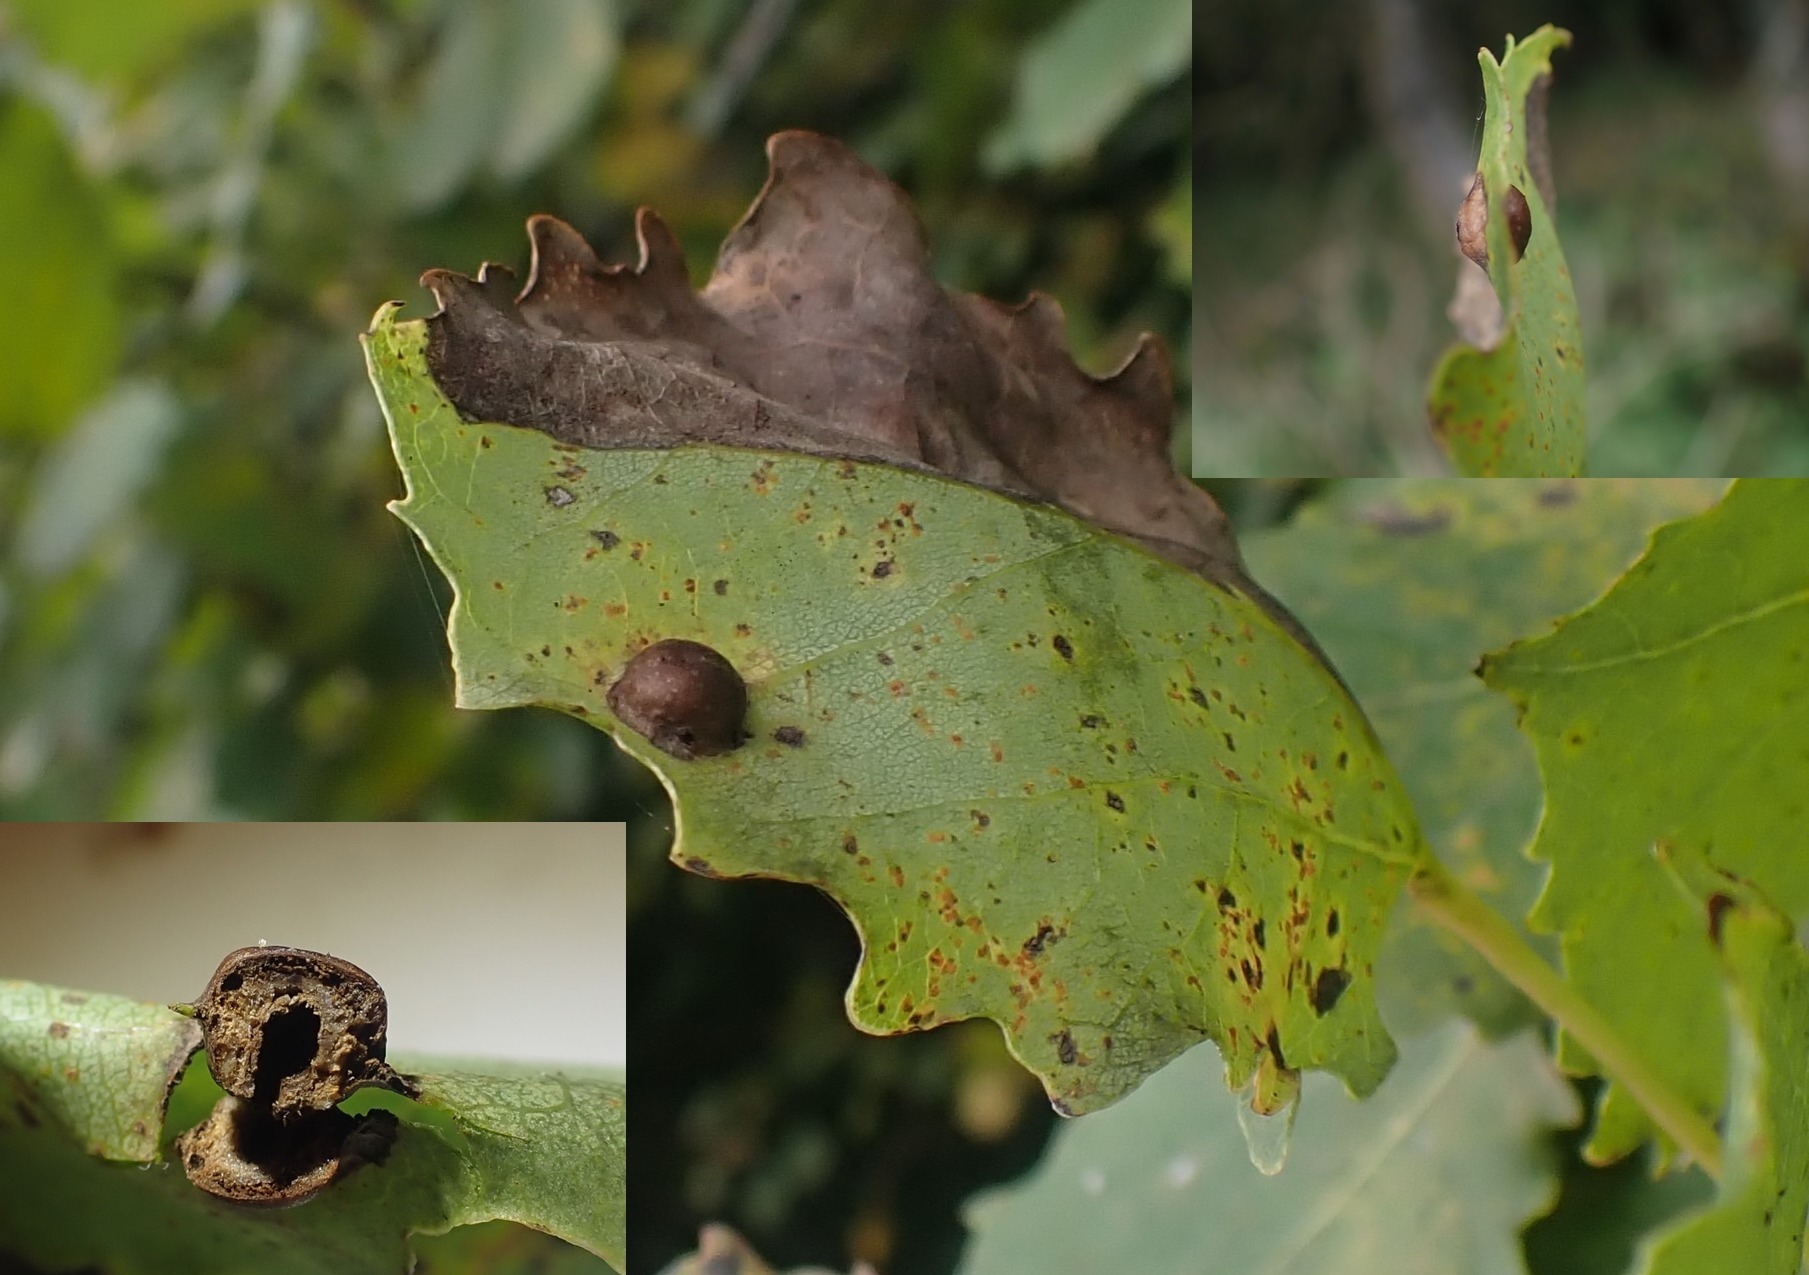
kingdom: Animalia
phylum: Arthropoda
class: Insecta
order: Diptera
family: Cecidomyiidae
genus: Harmandiola
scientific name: Harmandiola cavernosa
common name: Aspepunggalmyg
